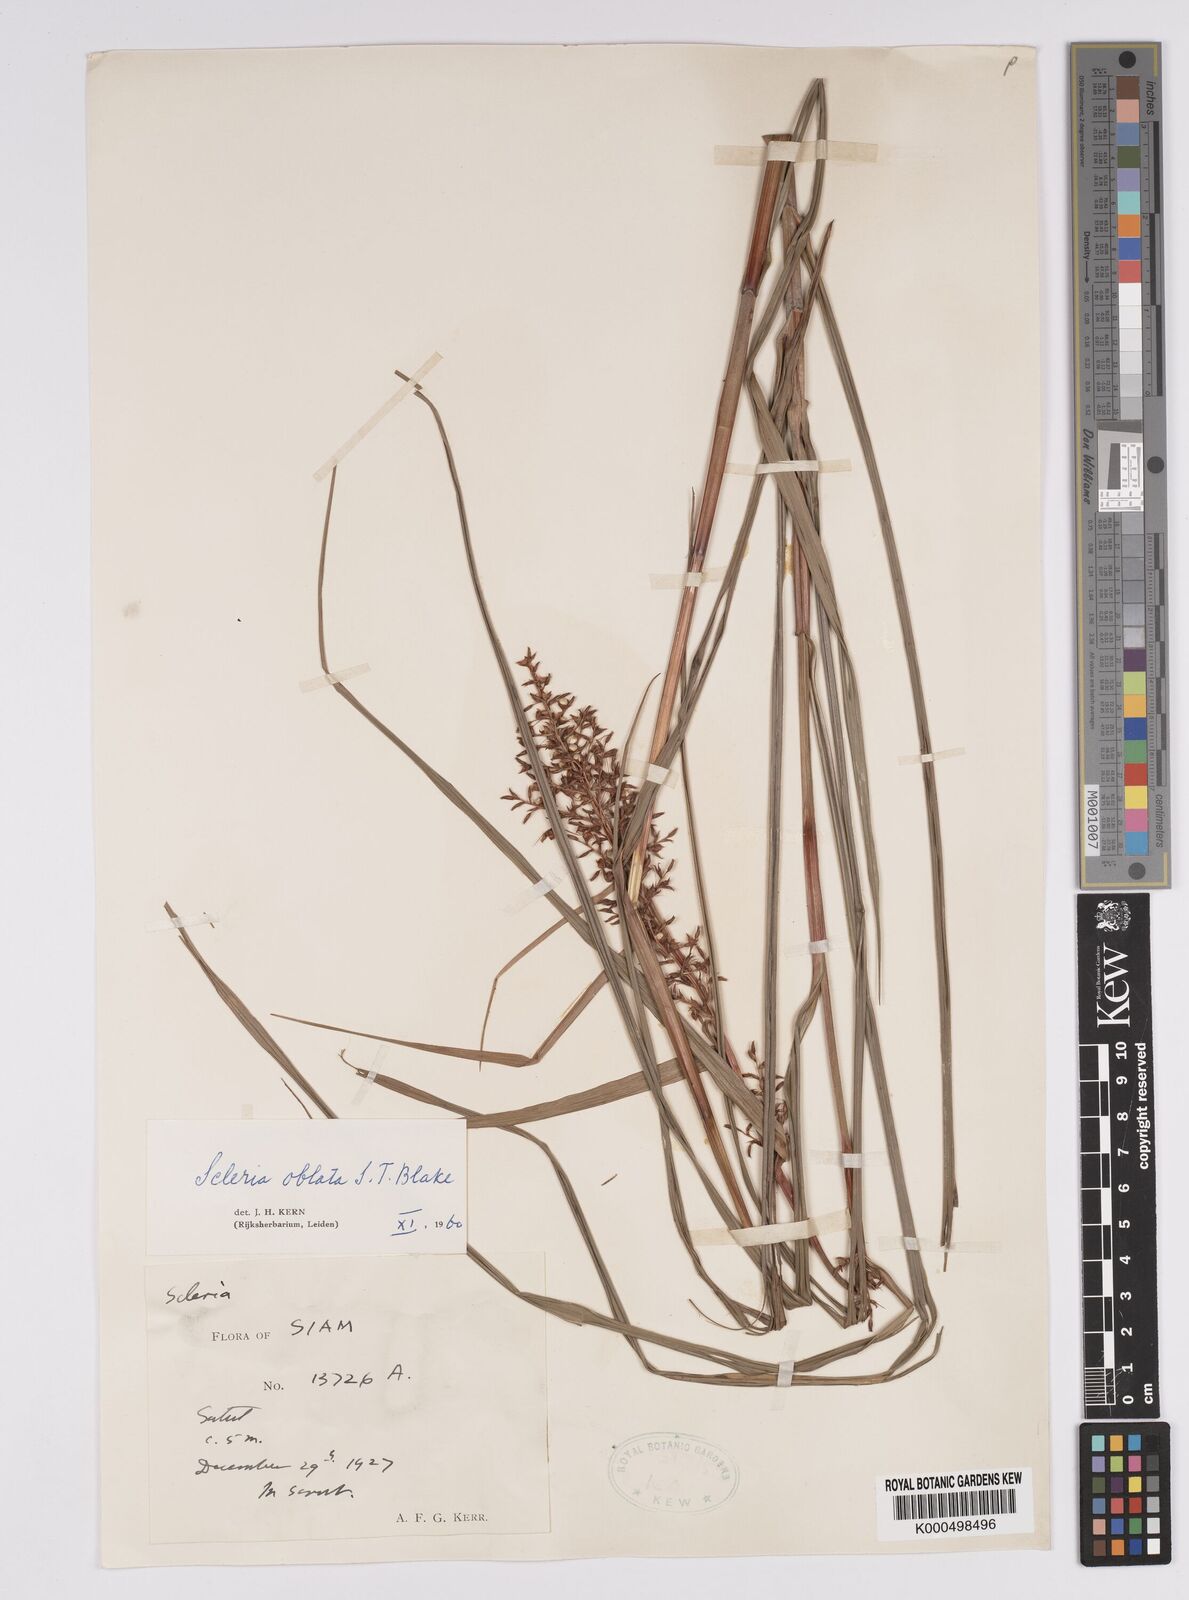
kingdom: Plantae
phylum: Tracheophyta
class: Liliopsida
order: Poales
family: Cyperaceae
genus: Scleria
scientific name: Scleria oblata
